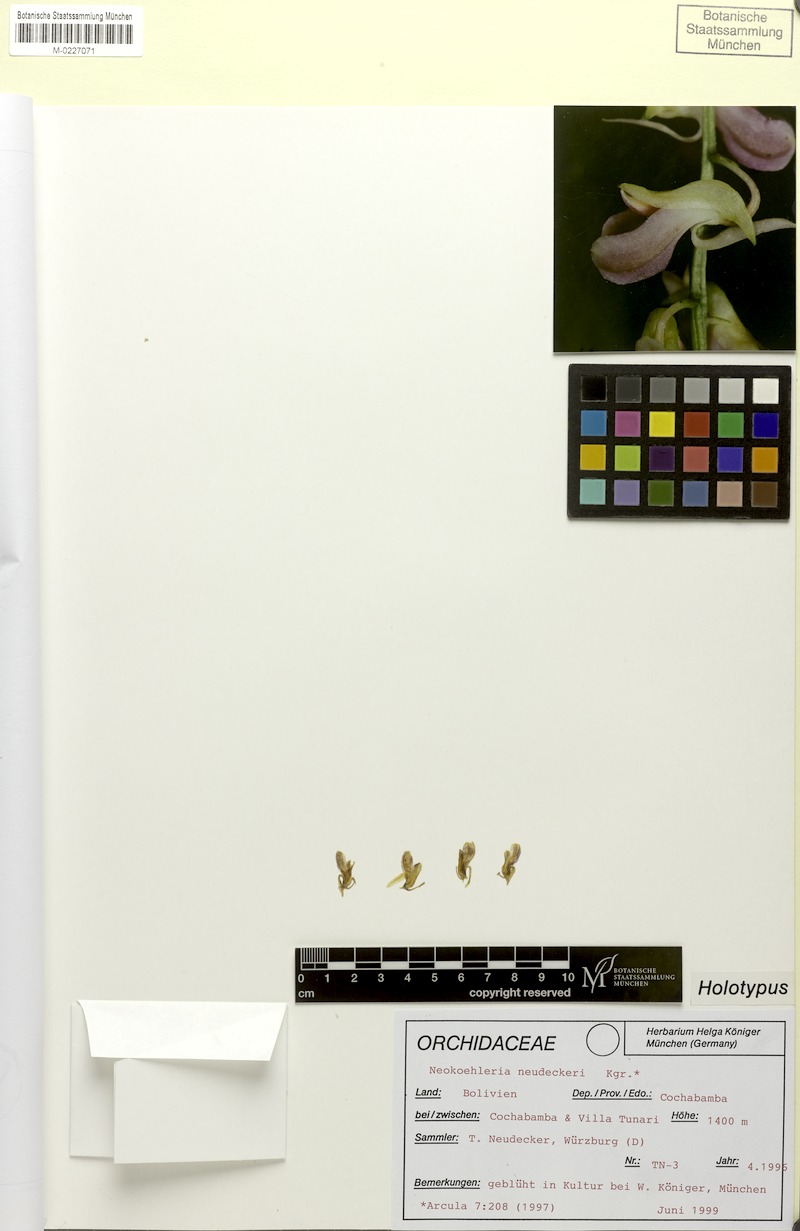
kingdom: Plantae
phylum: Tracheophyta
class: Liliopsida
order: Asparagales
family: Orchidaceae
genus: Comparettia
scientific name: Comparettia neudeckeri
